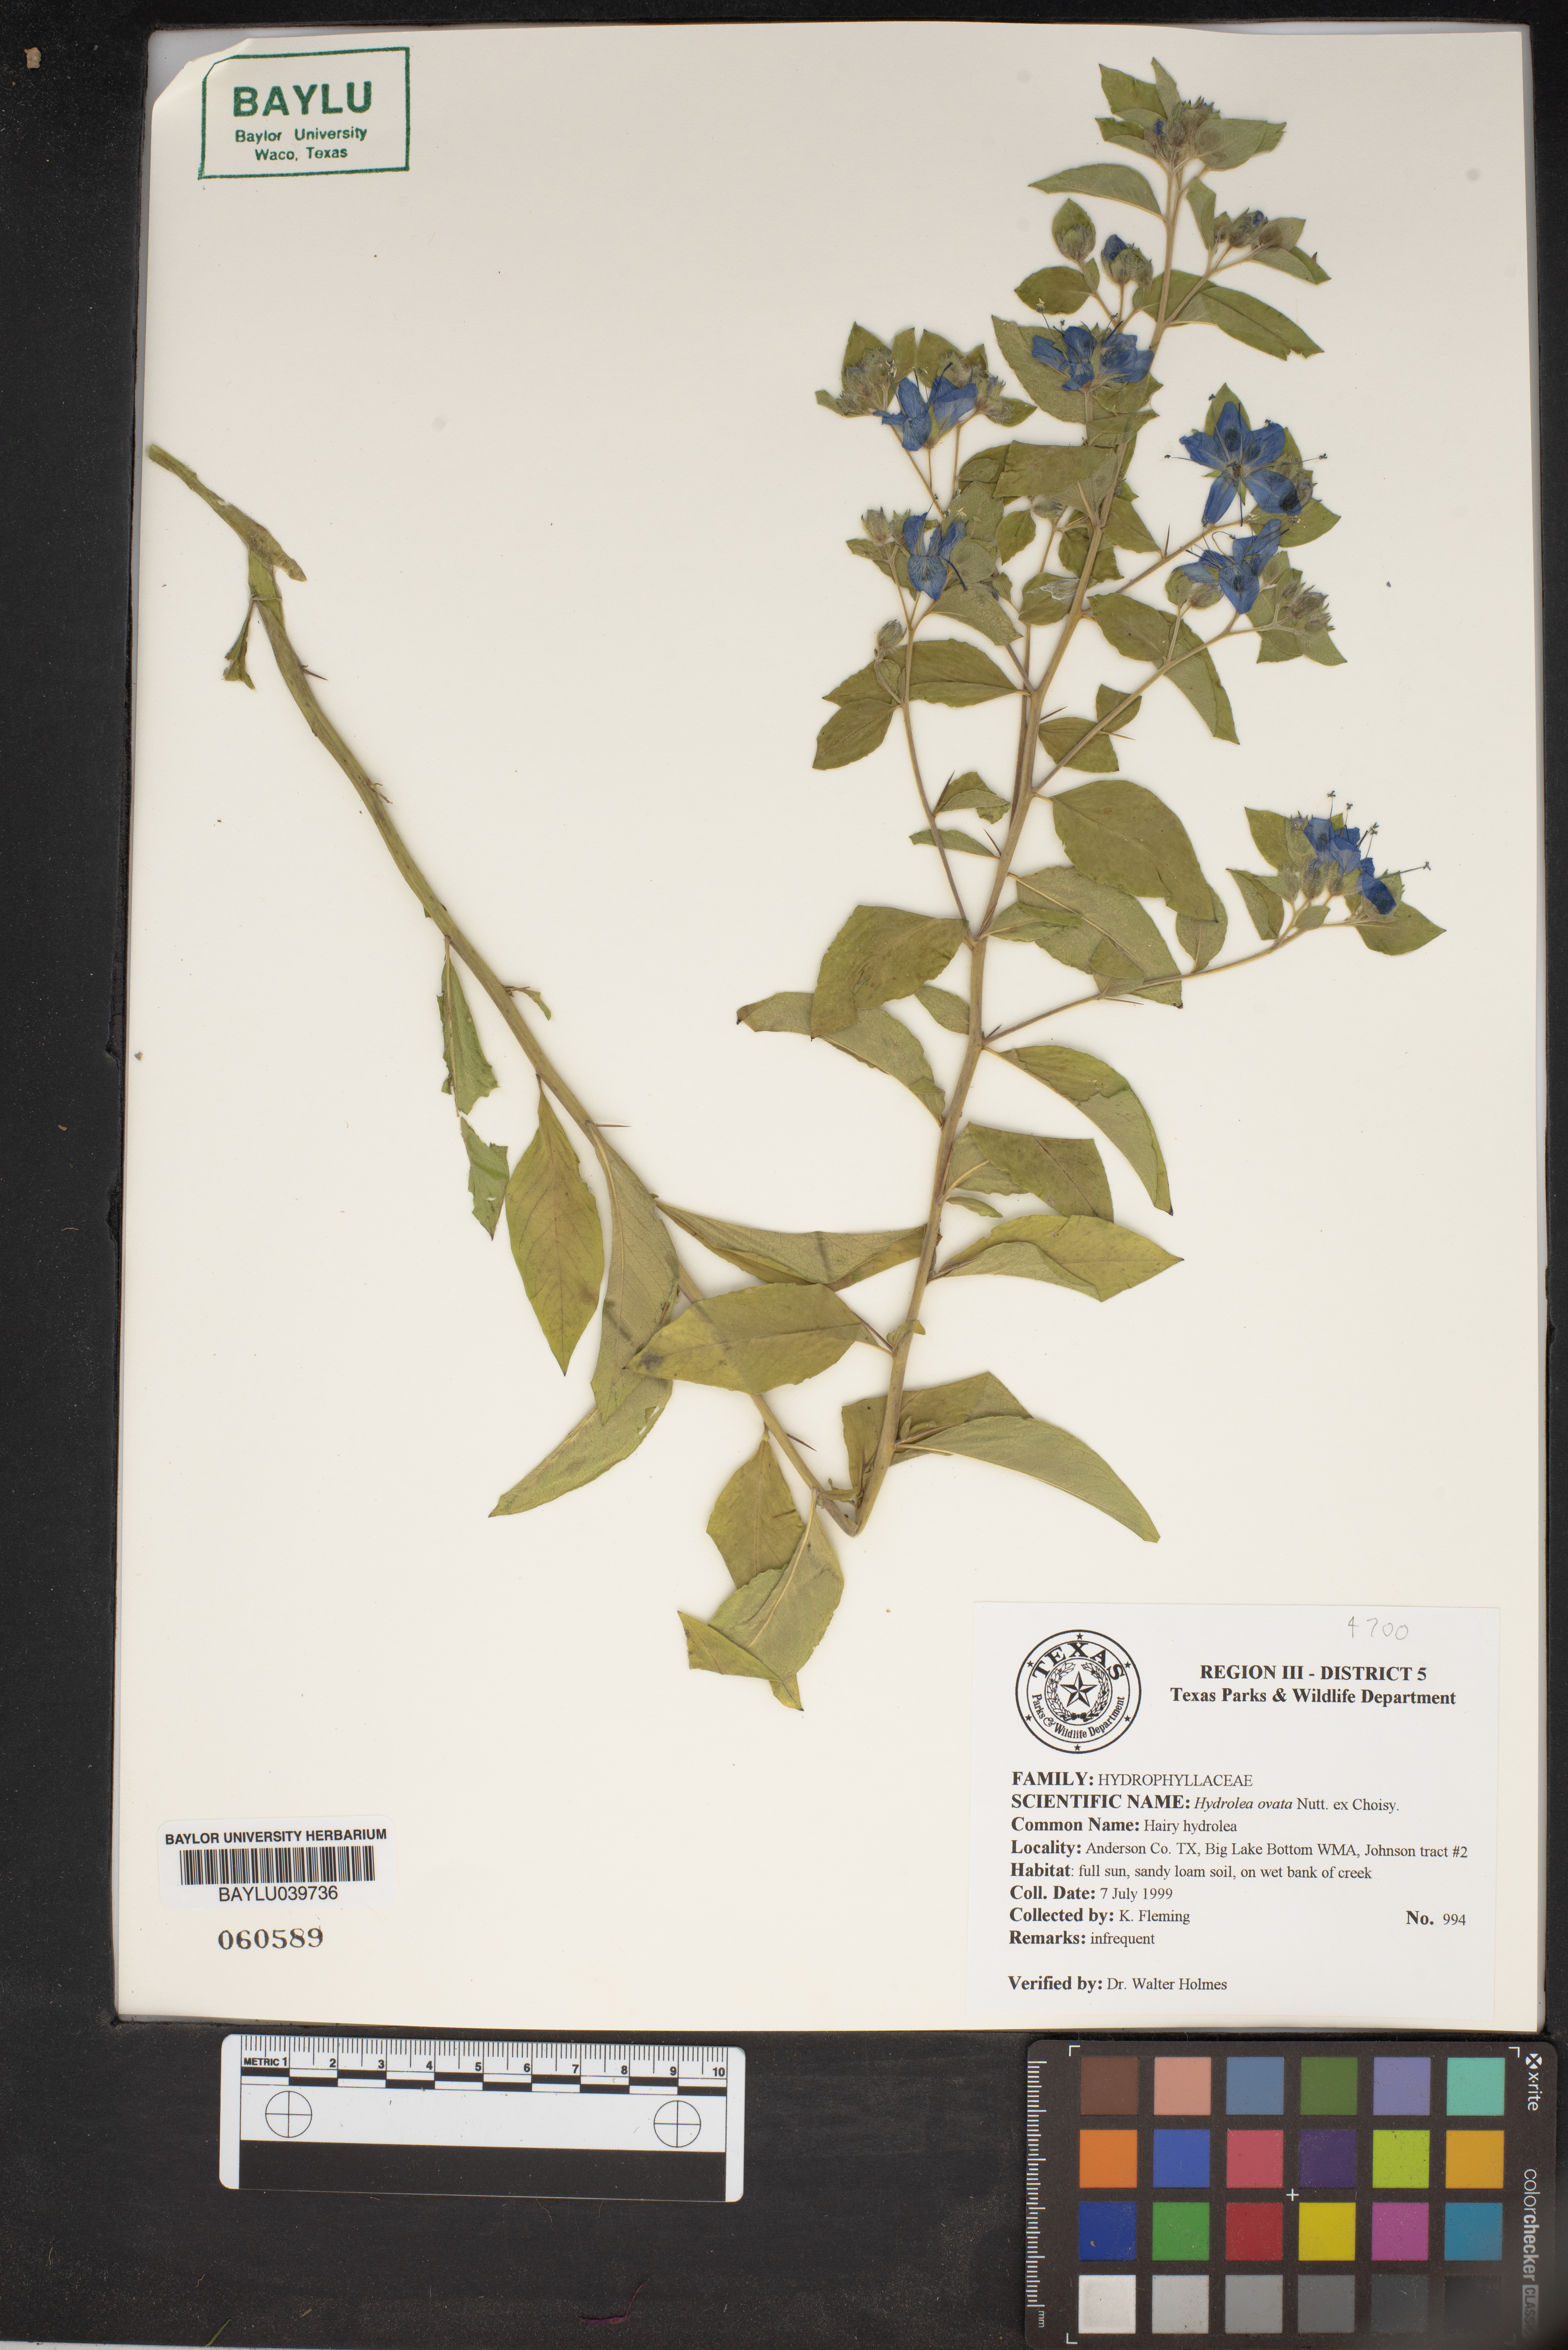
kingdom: Plantae
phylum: Tracheophyta
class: Magnoliopsida
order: Solanales
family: Hydroleaceae
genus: Hydrolea
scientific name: Hydrolea ovata
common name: Ovate false fiddleleaf
